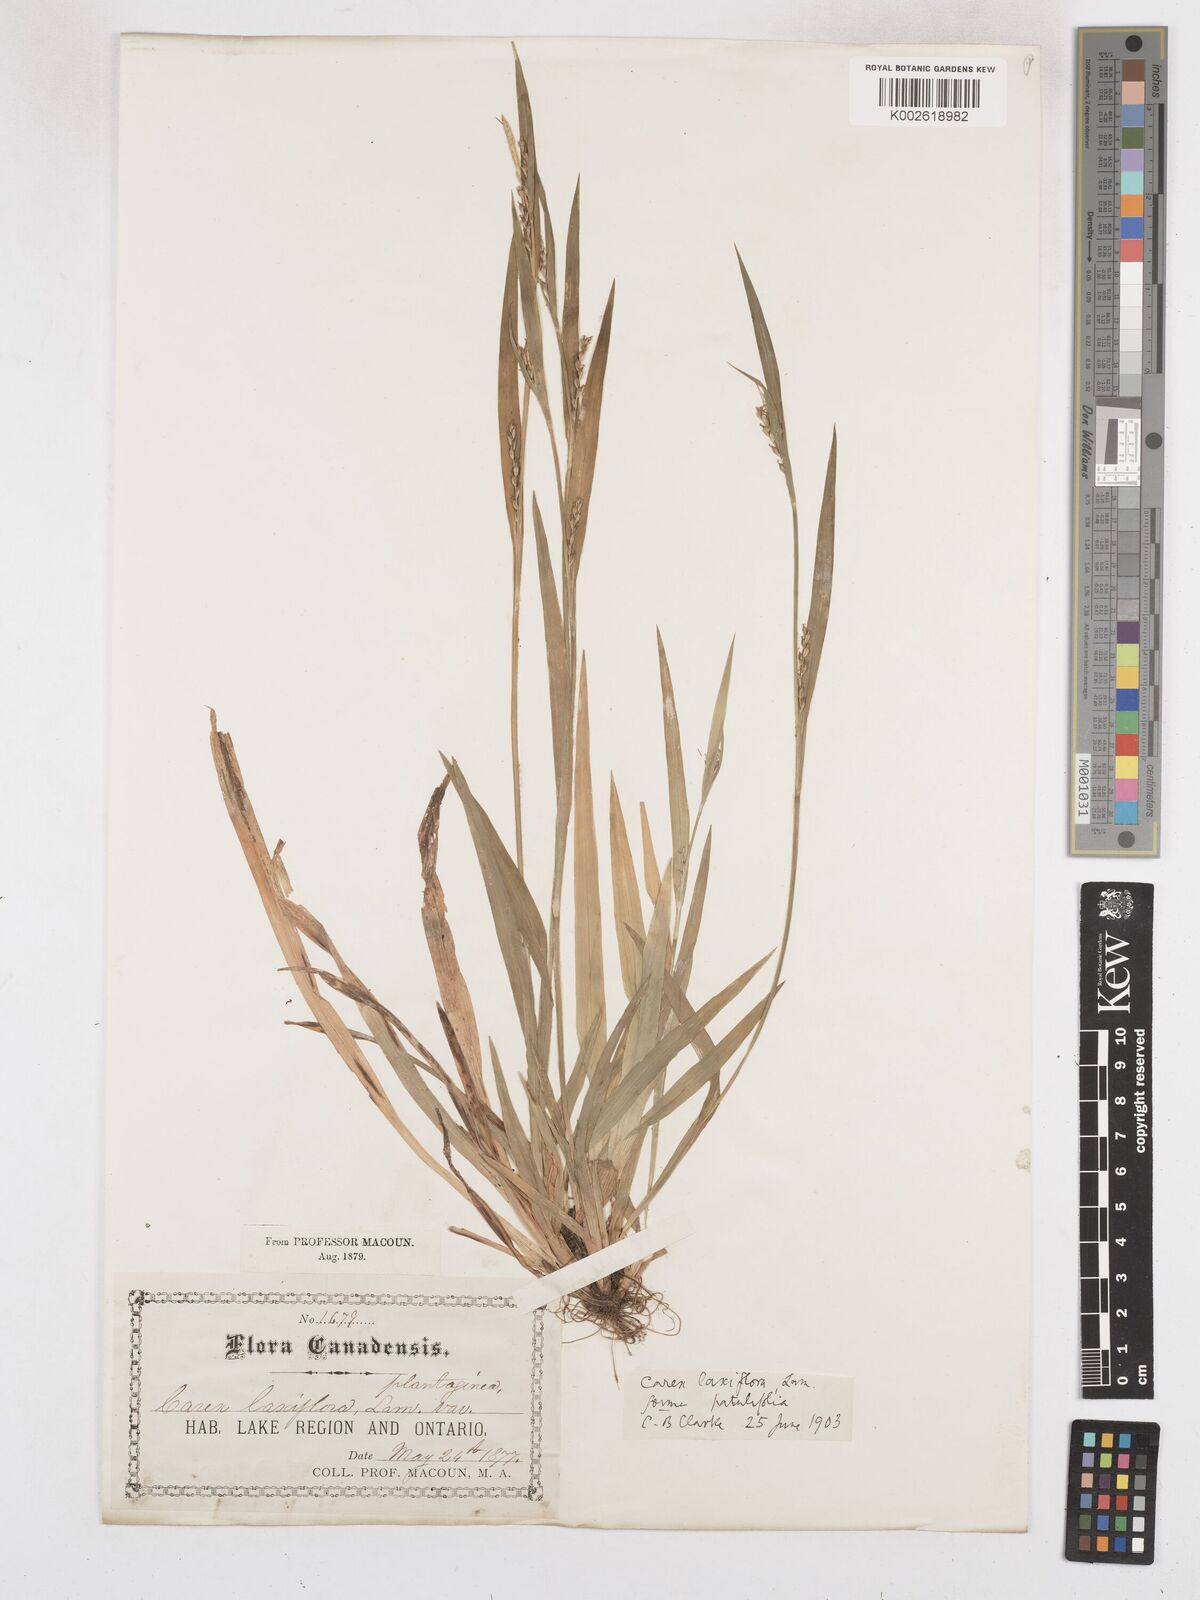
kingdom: Plantae
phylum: Tracheophyta
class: Liliopsida
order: Poales
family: Cyperaceae
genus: Carex
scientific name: Carex striatula
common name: Lined sedge
